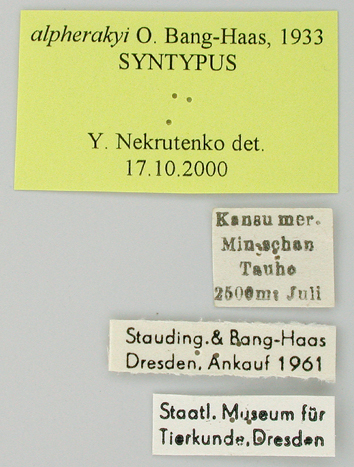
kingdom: Animalia
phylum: Arthropoda
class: Insecta
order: Lepidoptera
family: Papilionidae
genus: Papilio
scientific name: Papilio machaon
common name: Swallowtail
